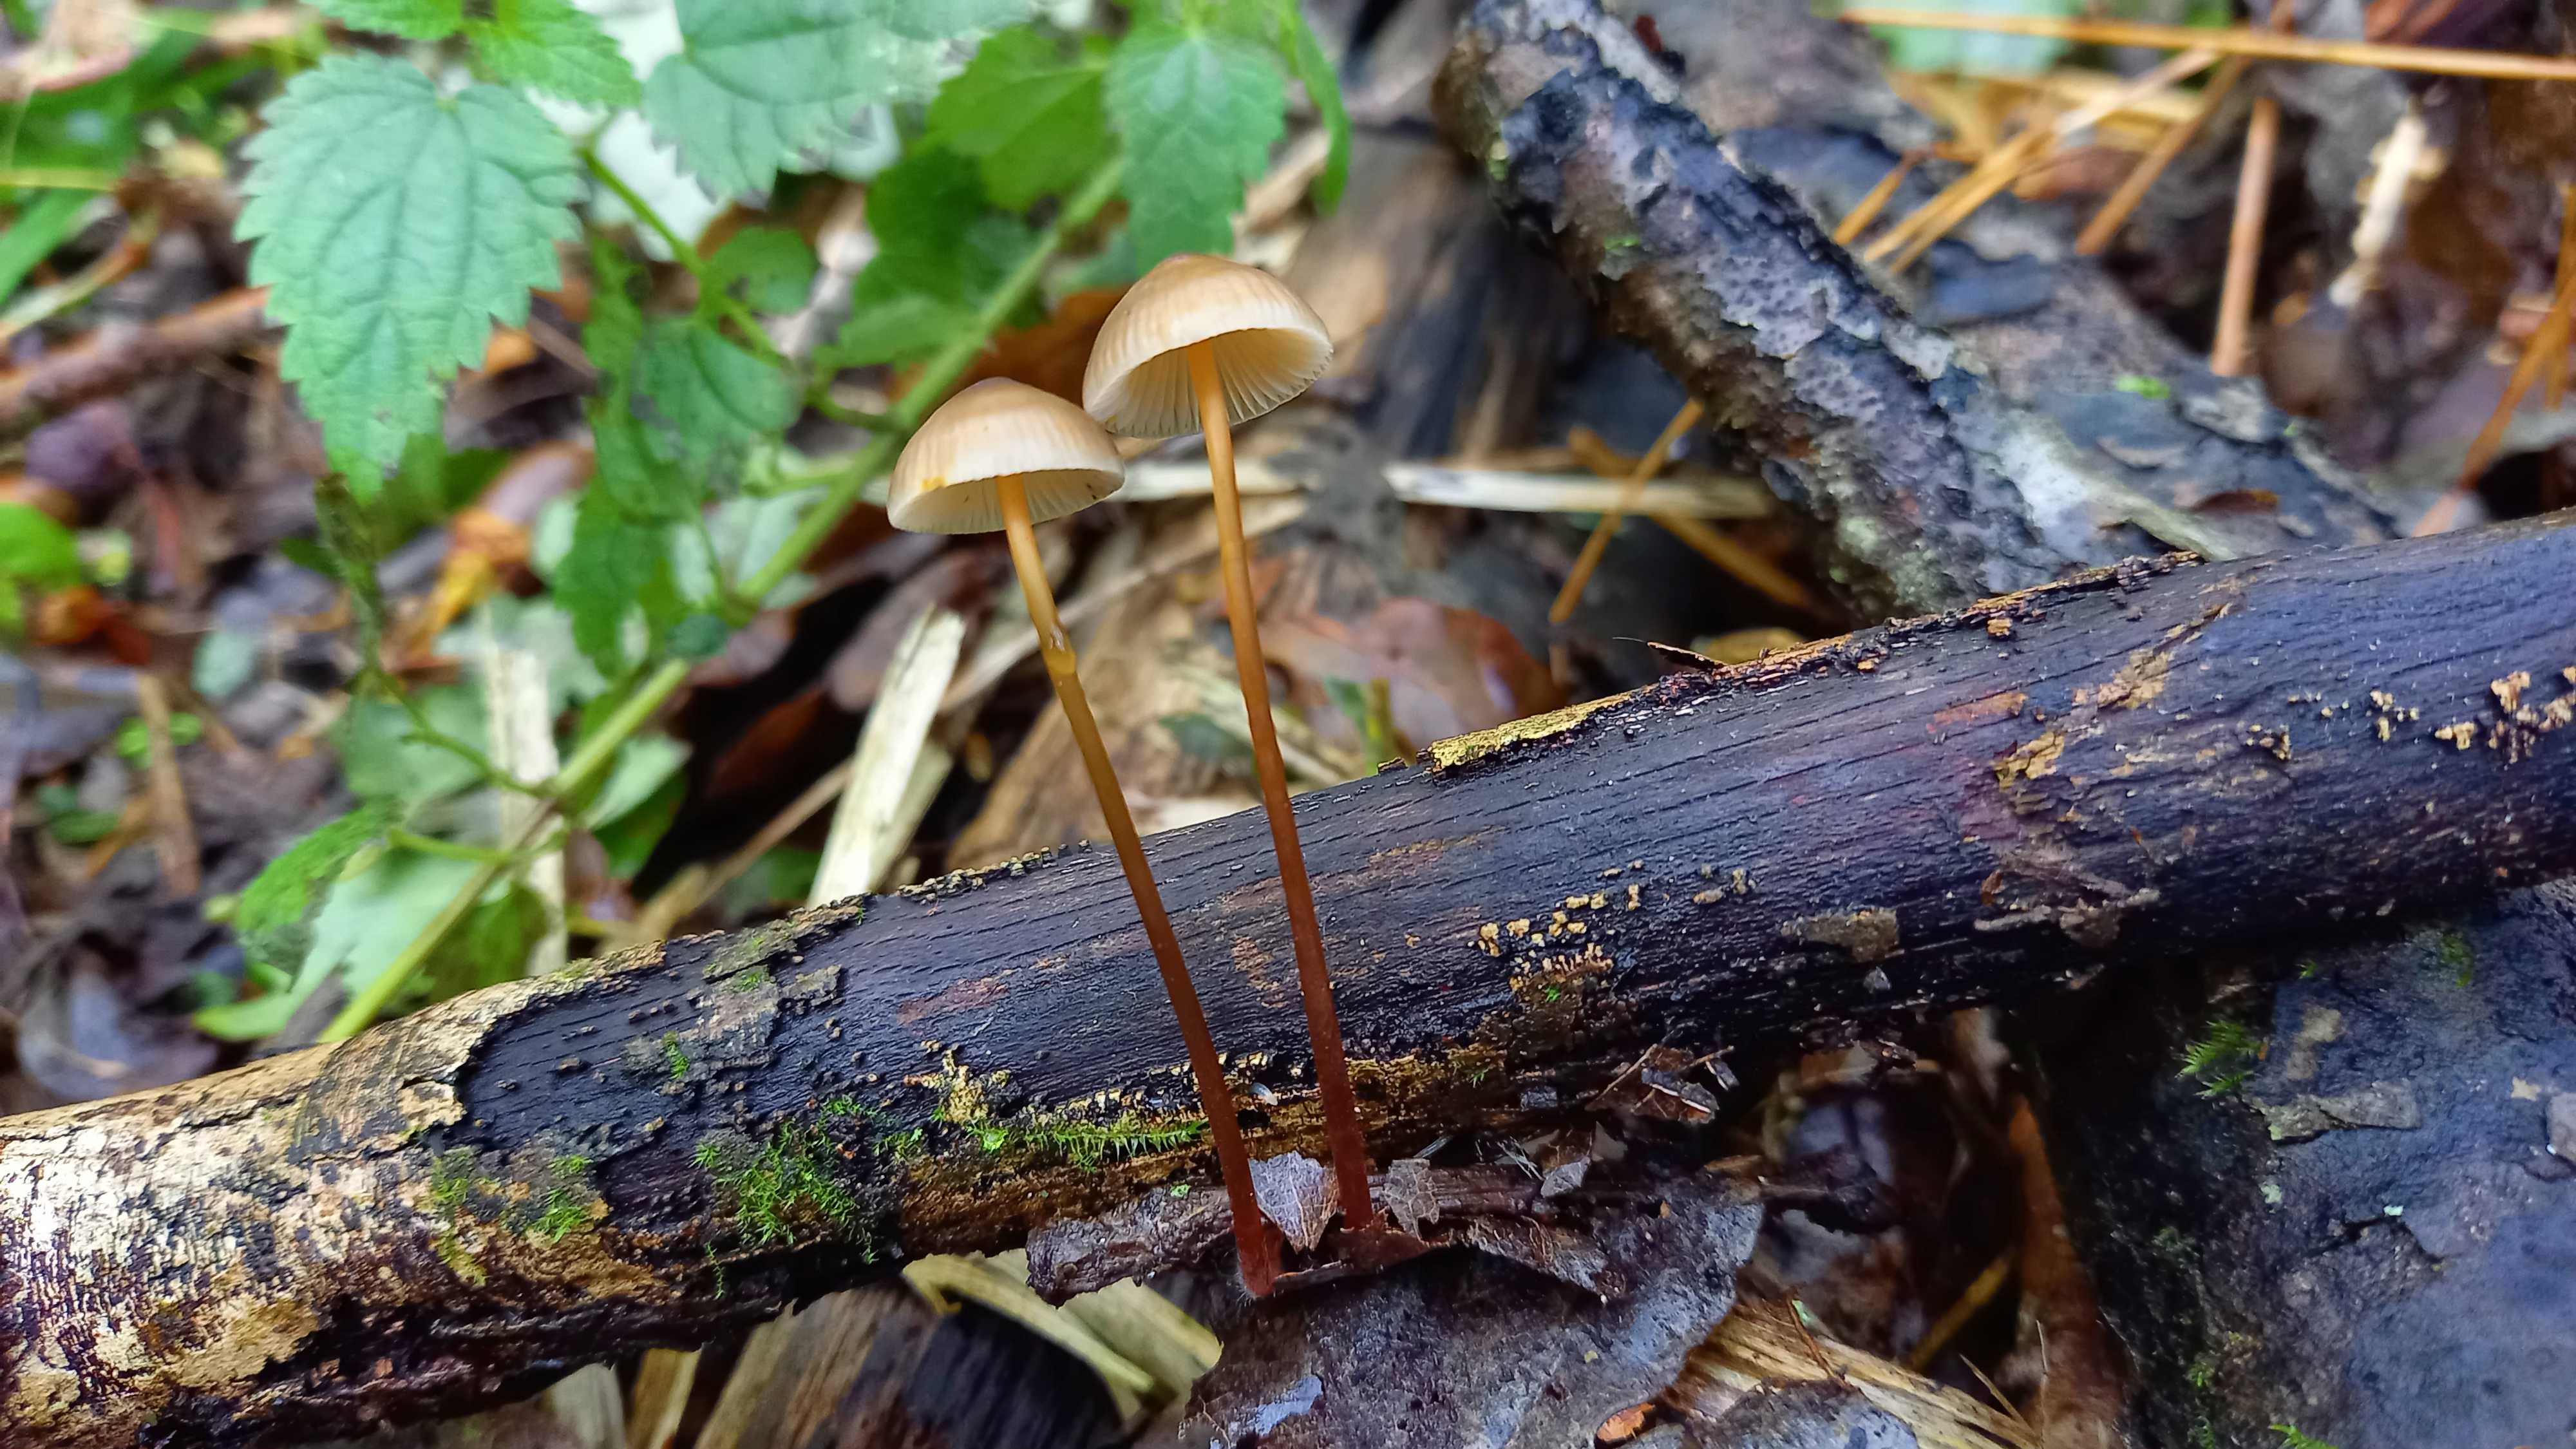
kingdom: Fungi
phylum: Basidiomycota
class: Agaricomycetes
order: Agaricales
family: Mycenaceae
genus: Mycena
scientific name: Mycena crocata
